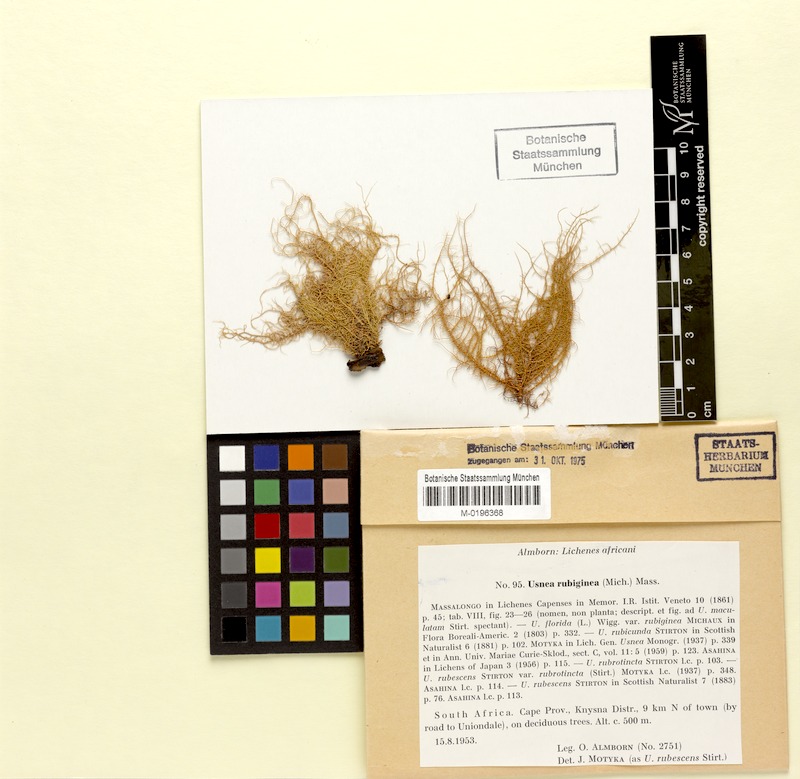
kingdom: Fungi
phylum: Ascomycota
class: Lecanoromycetes
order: Lecanorales
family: Parmeliaceae
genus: Usnea
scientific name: Usnea rubrotincta
